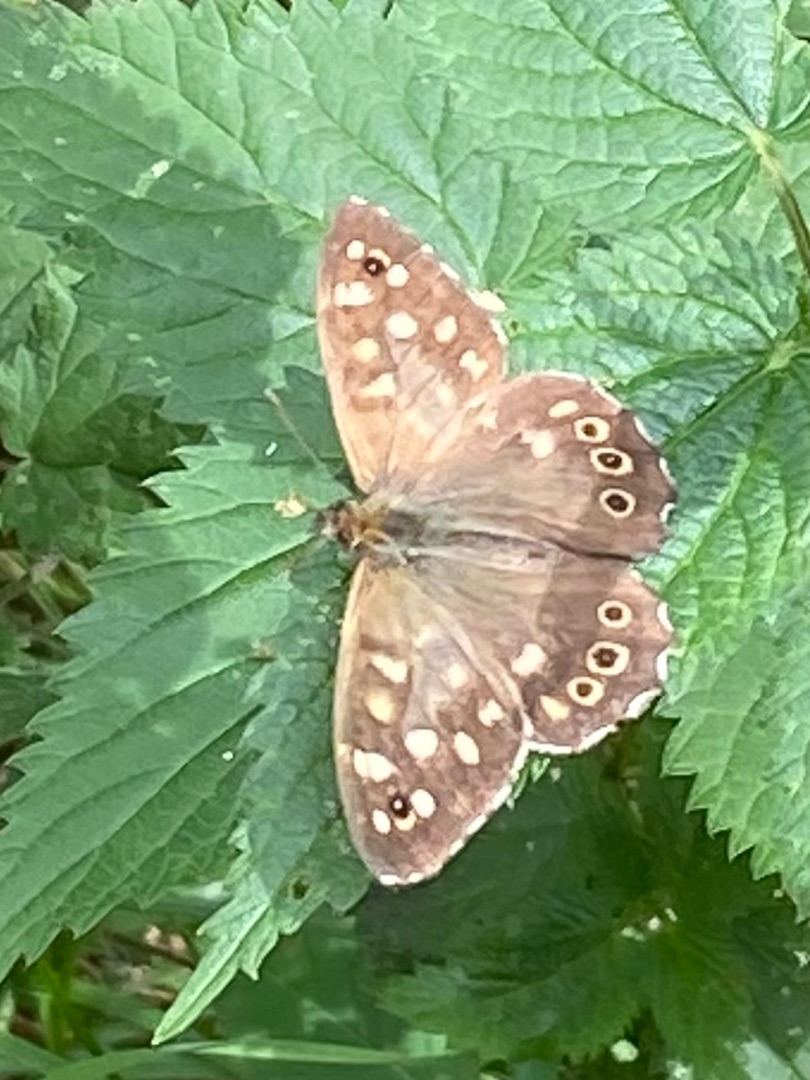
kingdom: Animalia
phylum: Arthropoda
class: Insecta
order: Lepidoptera
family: Nymphalidae
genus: Pararge
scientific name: Pararge aegeria
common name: Skovrandøje
